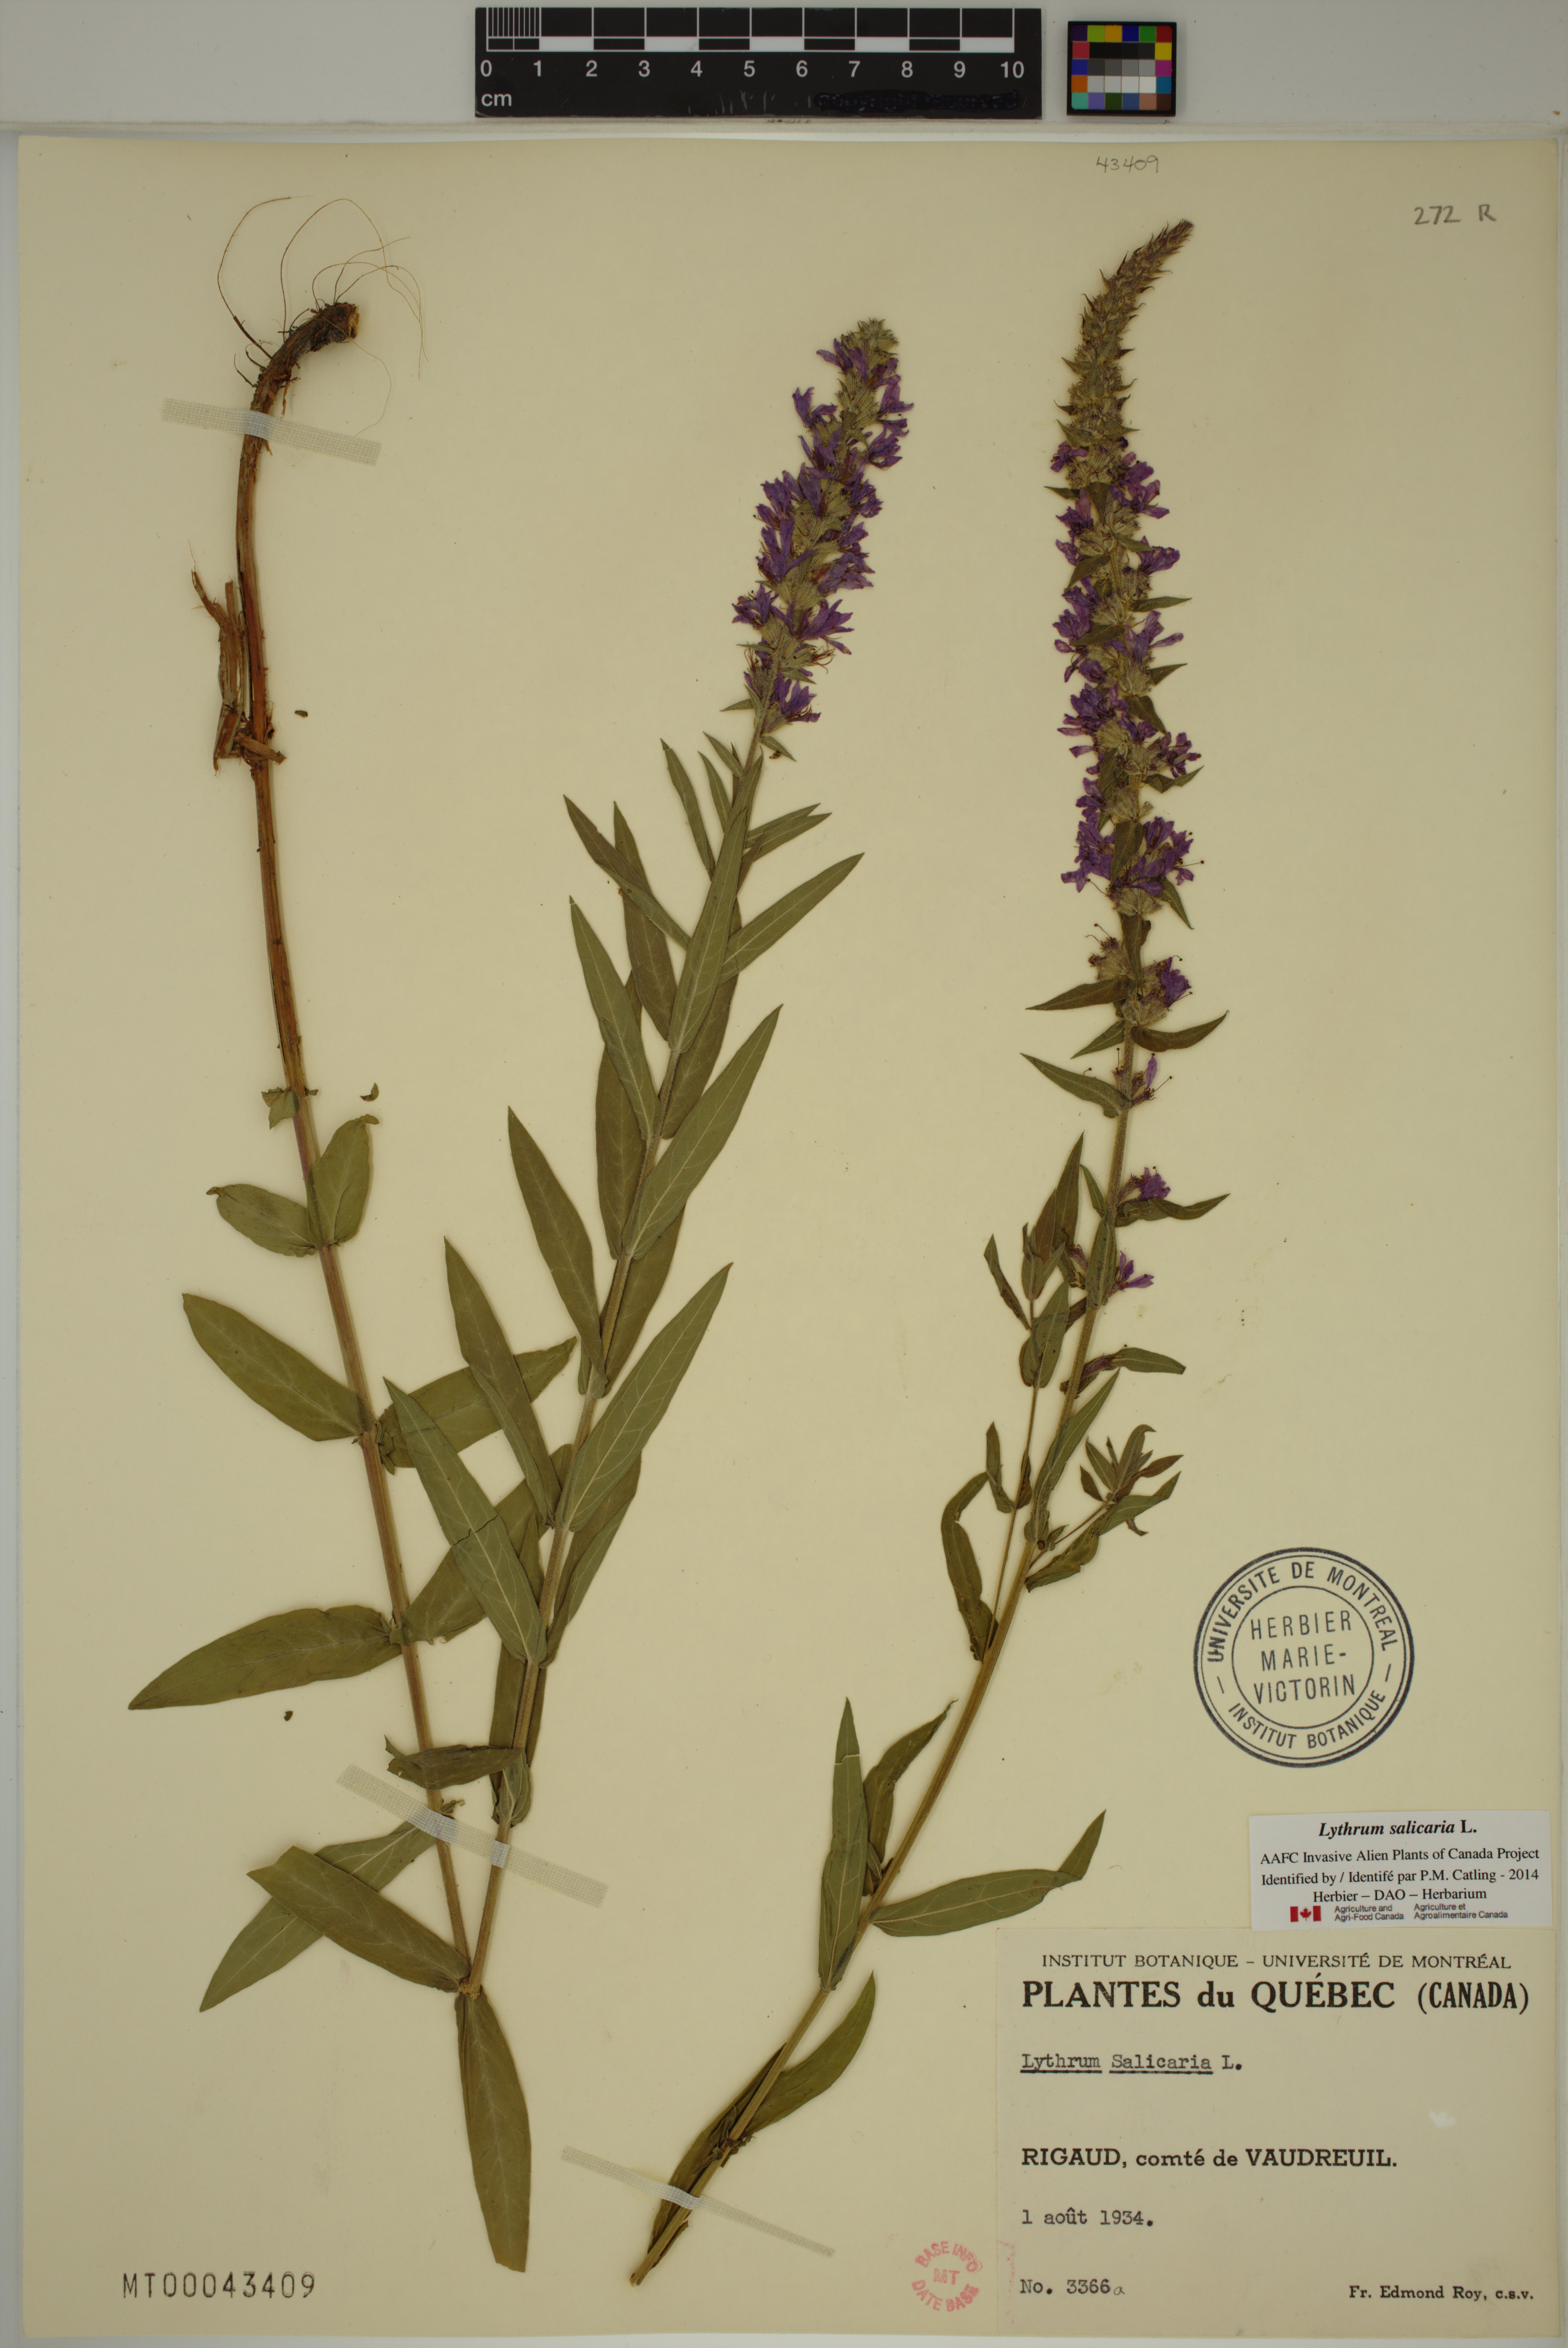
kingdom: Plantae
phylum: Tracheophyta
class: Magnoliopsida
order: Myrtales
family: Lythraceae
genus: Lythrum
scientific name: Lythrum salicaria
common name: Purple loosestrife
